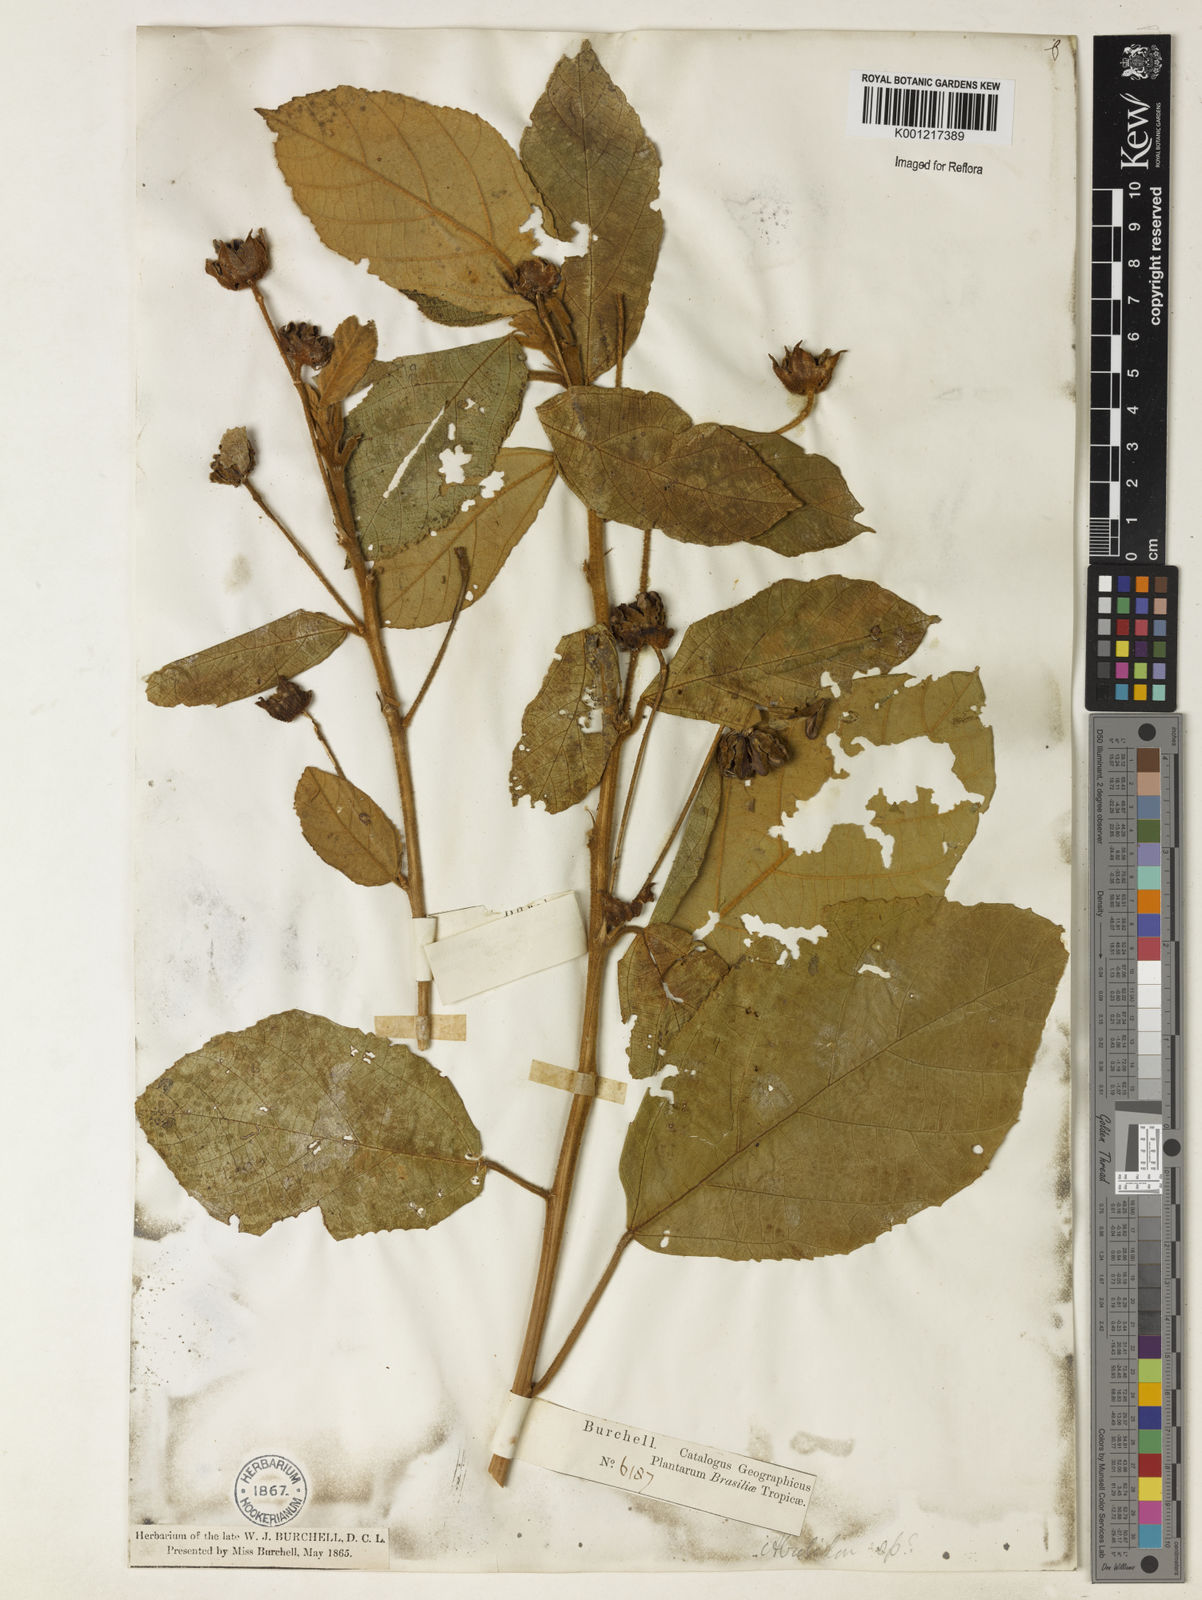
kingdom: Plantae
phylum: Tracheophyta
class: Magnoliopsida
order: Malvales
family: Malvaceae
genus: Abutilon
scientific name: Abutilon
